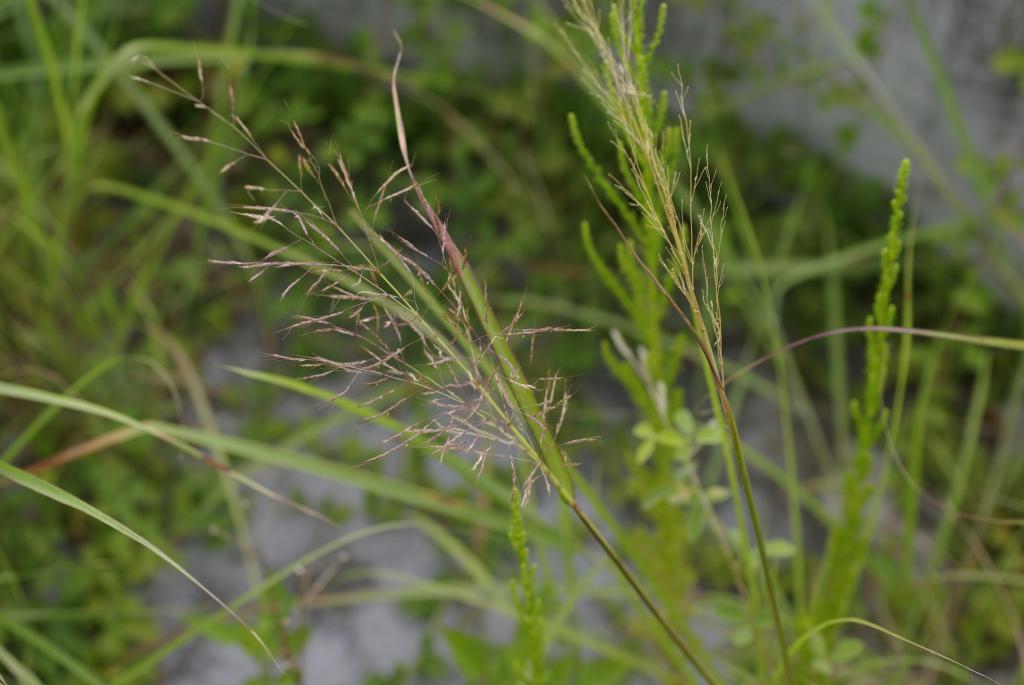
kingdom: Plantae
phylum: Tracheophyta
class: Liliopsida
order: Poales
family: Poaceae
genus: Capillipedium
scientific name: Capillipedium parviflorum
